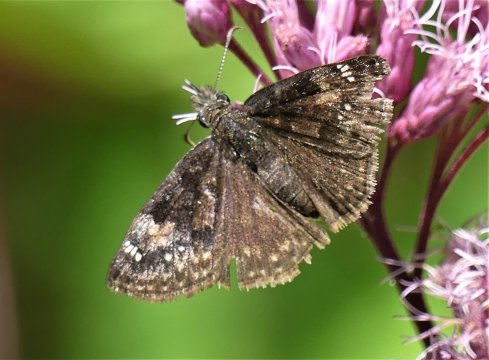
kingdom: Animalia
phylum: Arthropoda
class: Insecta
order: Lepidoptera
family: Hesperiidae
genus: Gesta
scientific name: Gesta
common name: Columbine Duskywing
